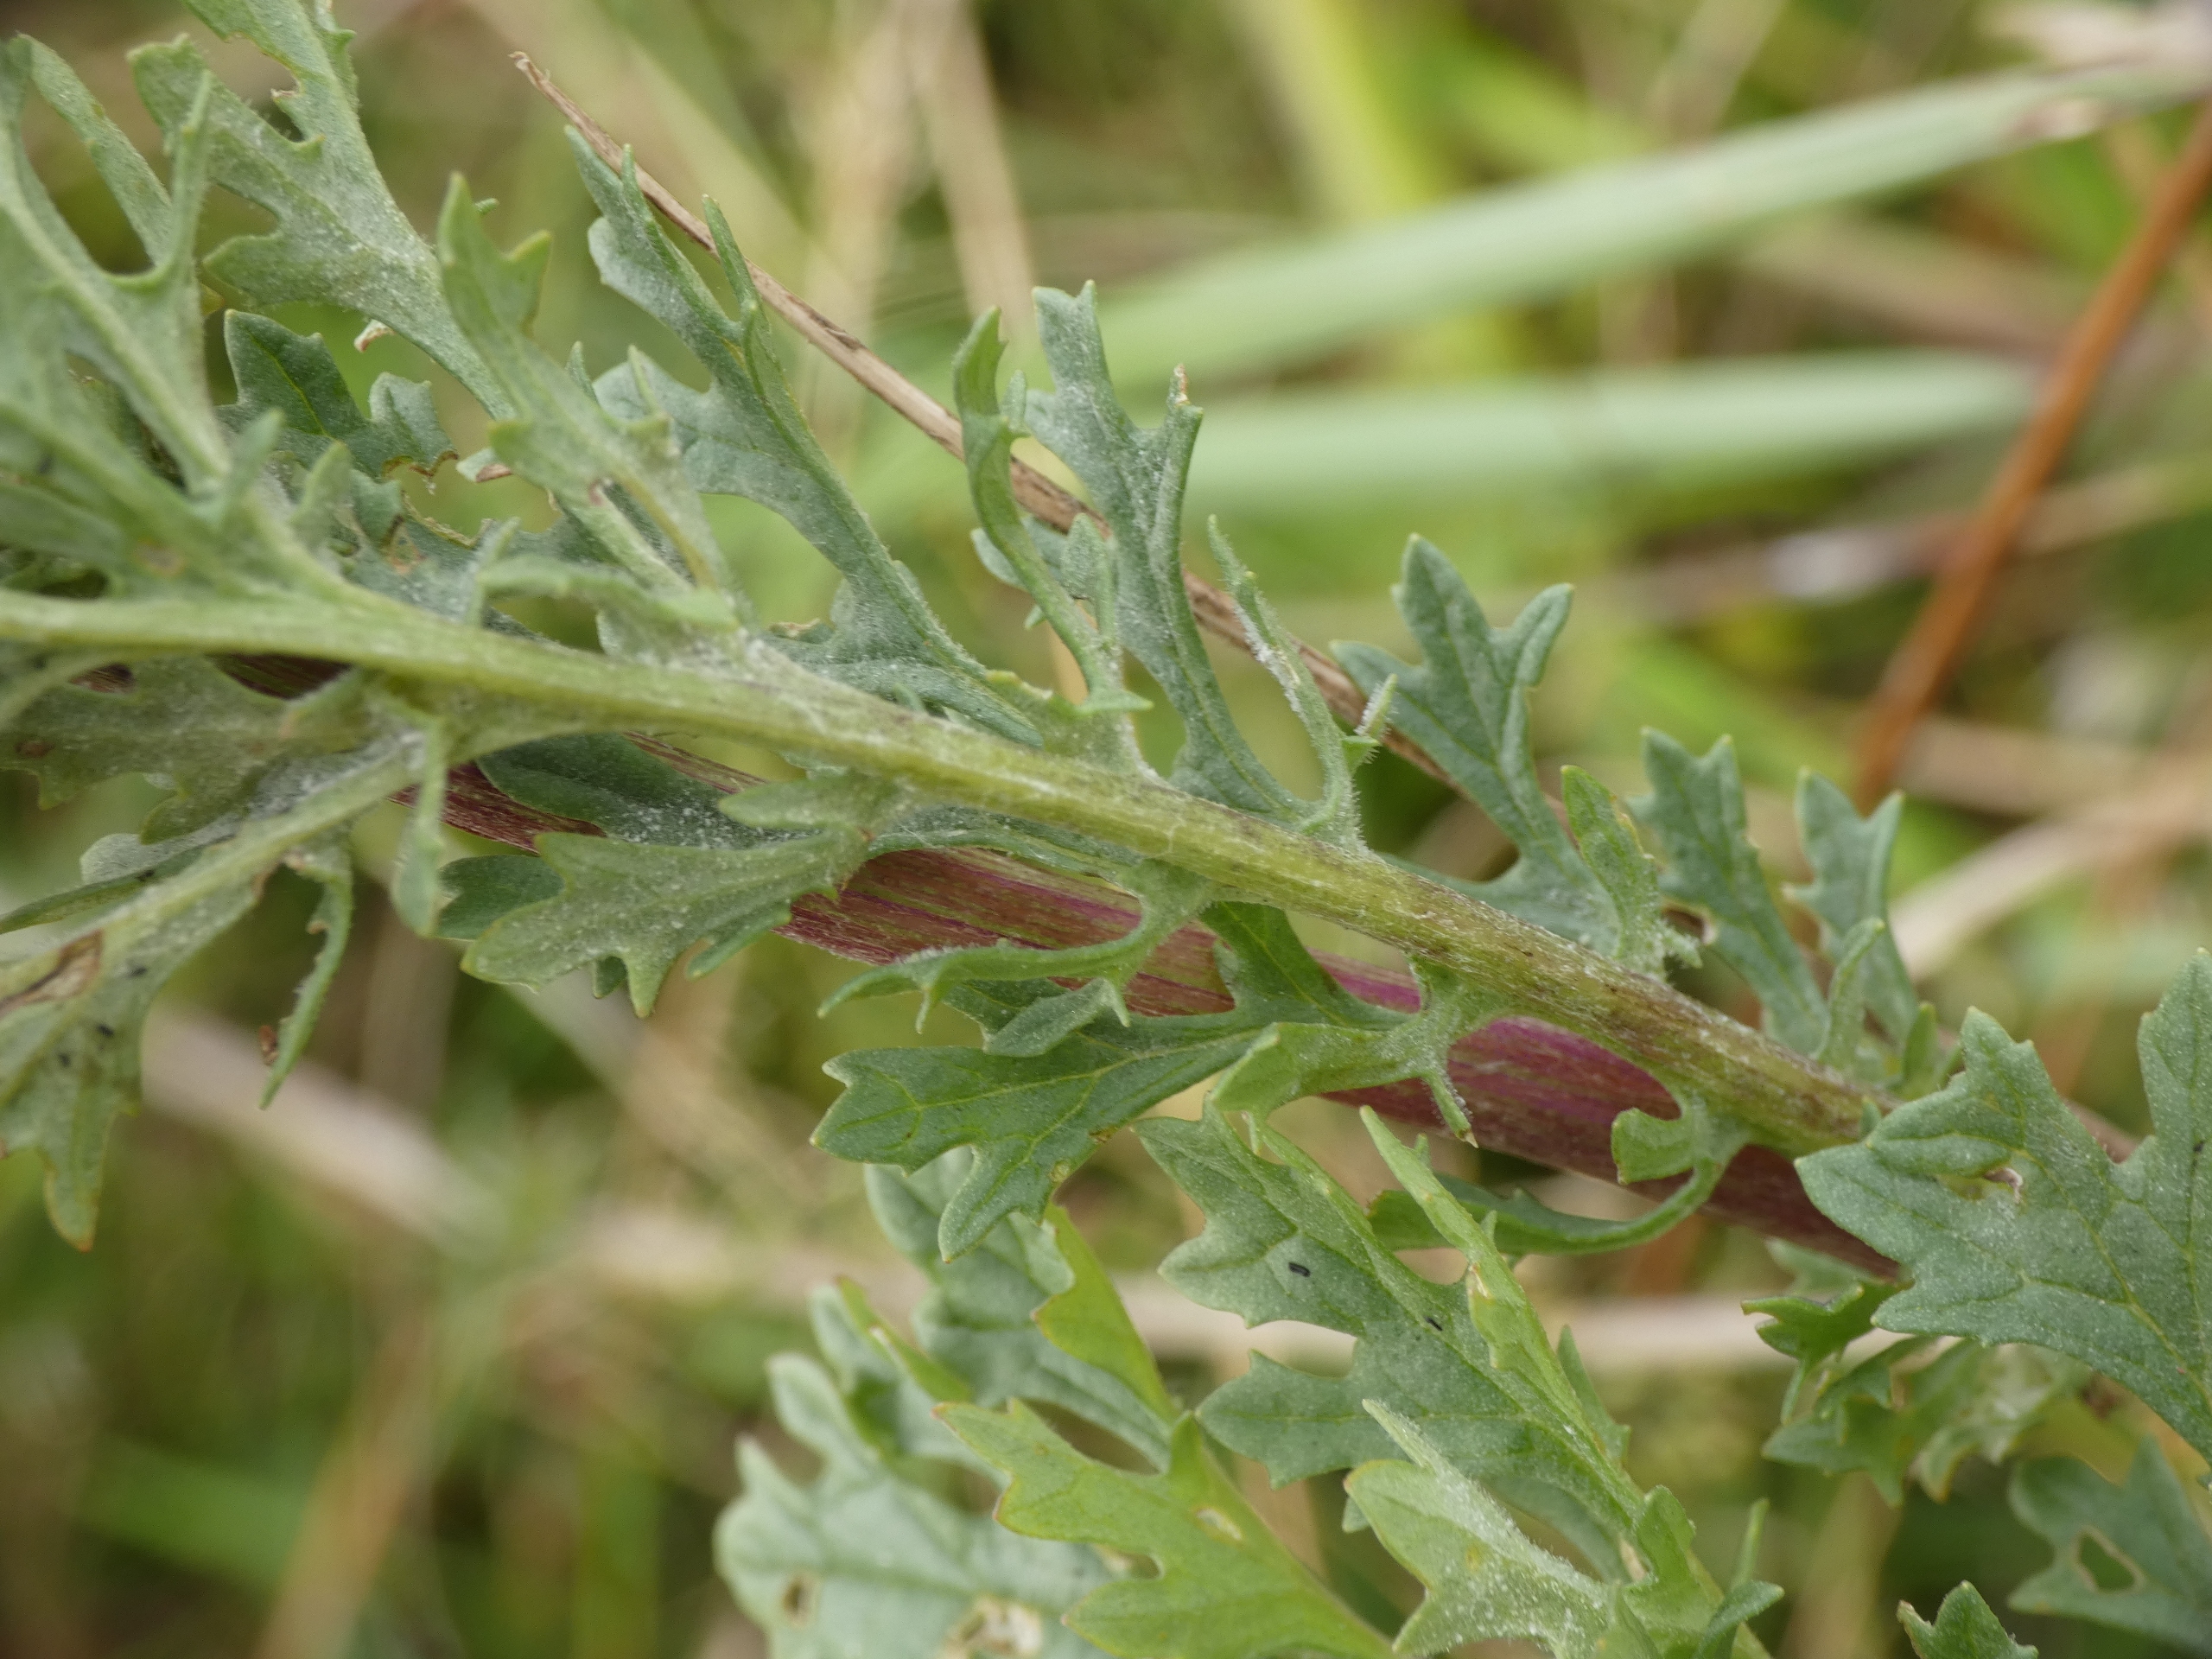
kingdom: Plantae
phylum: Tracheophyta
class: Magnoliopsida
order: Asterales
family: Asteraceae
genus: Jacobaea
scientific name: Jacobaea vulgaris
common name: Eng-brandbæger
